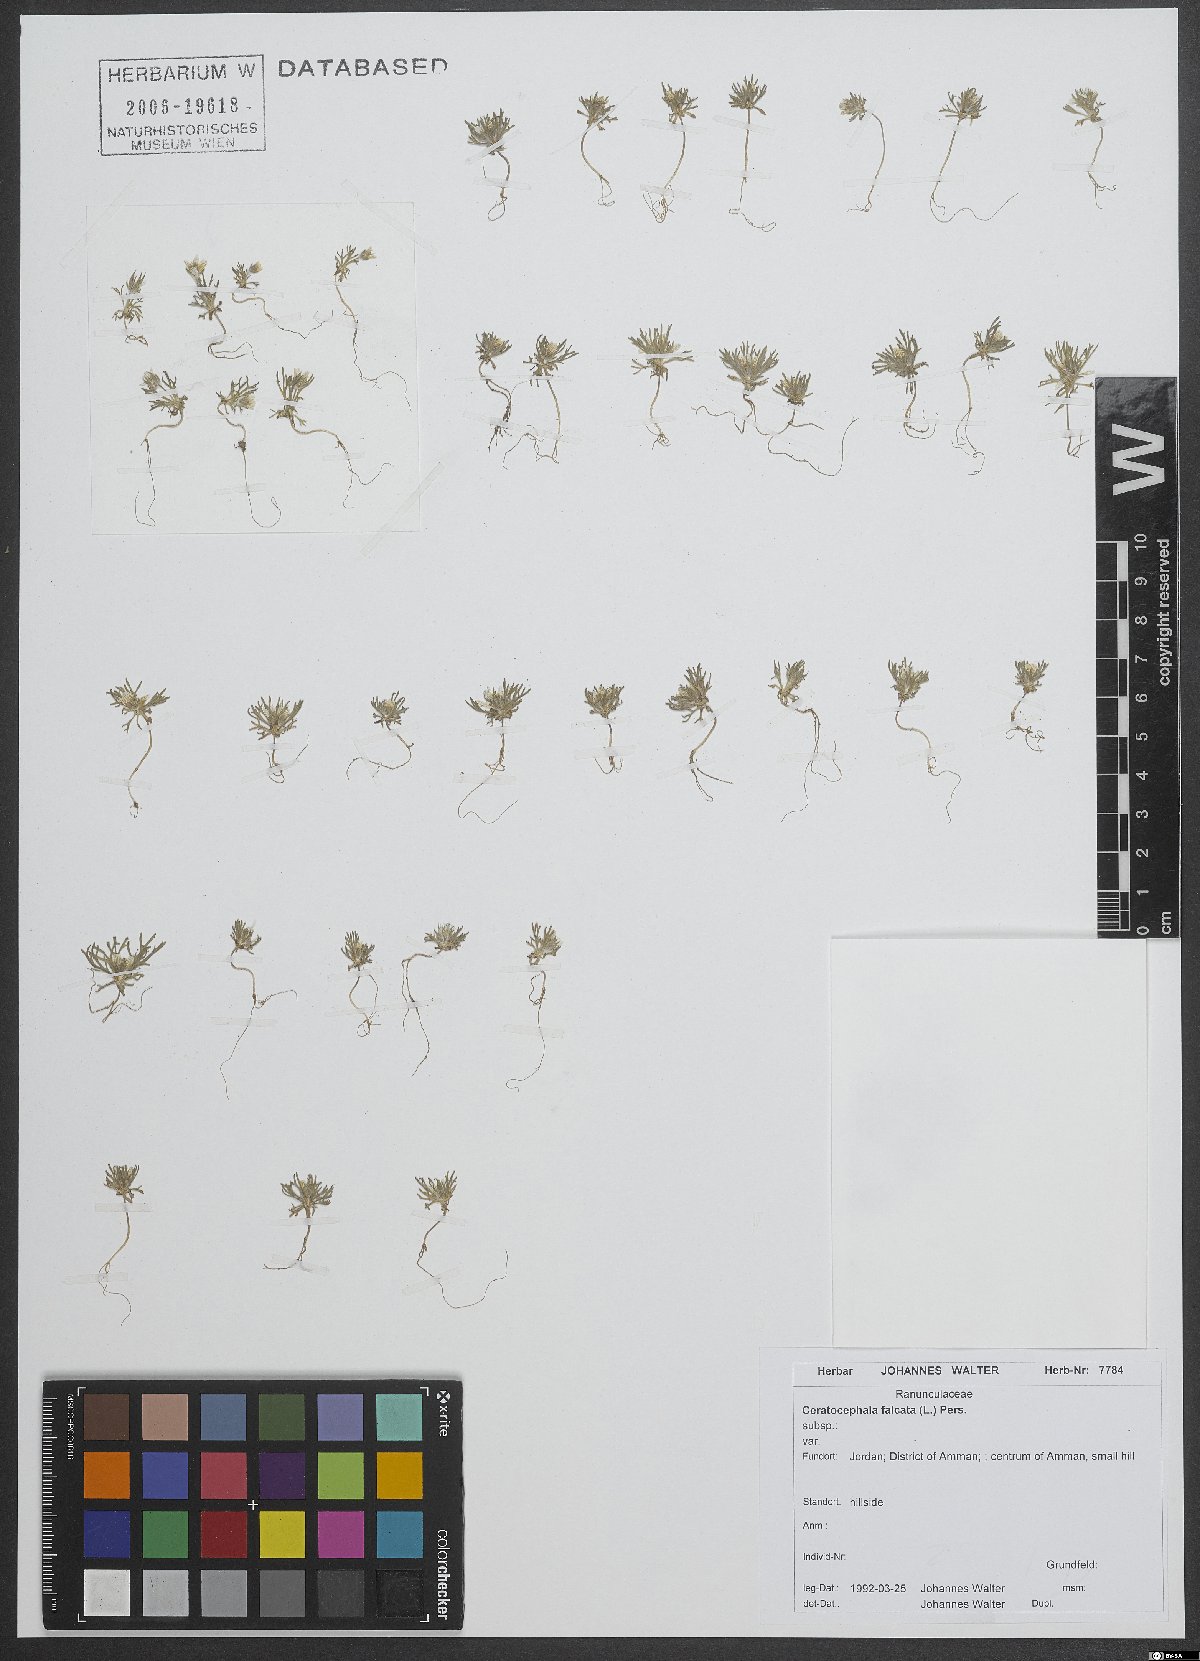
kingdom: Plantae
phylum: Tracheophyta
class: Magnoliopsida
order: Ranunculales
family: Ranunculaceae
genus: Ceratocephala
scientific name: Ceratocephala falcata
